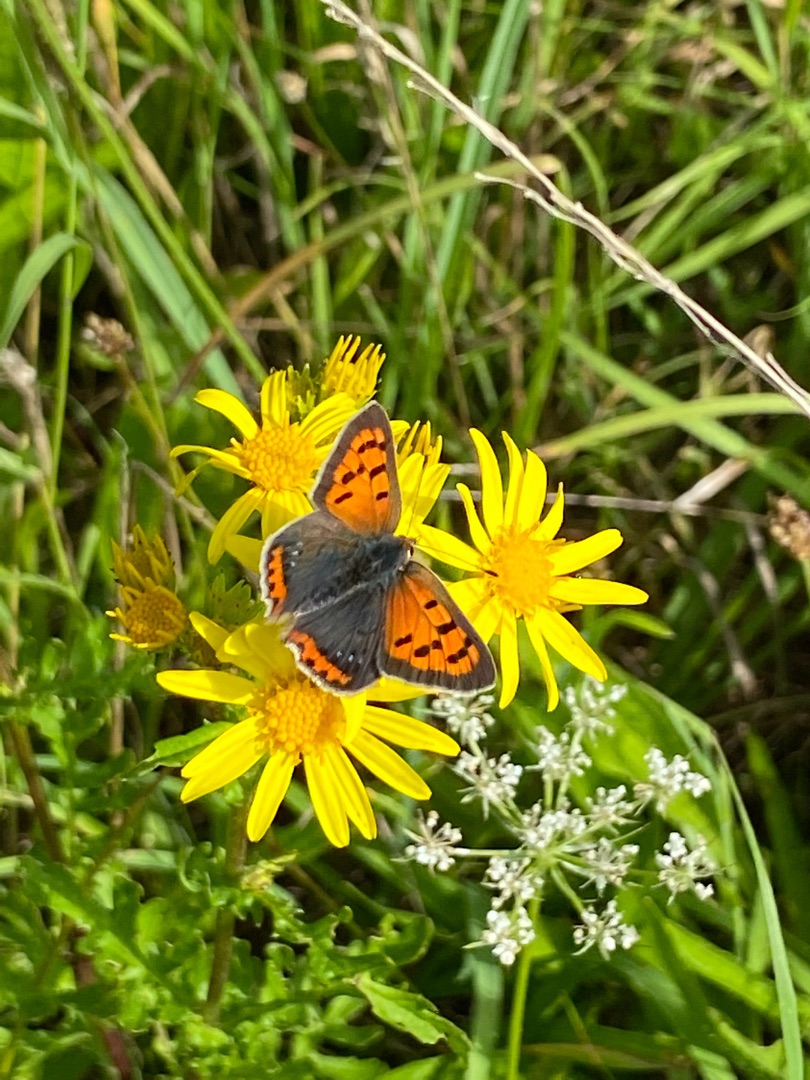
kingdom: Animalia
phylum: Arthropoda
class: Insecta
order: Lepidoptera
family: Lycaenidae
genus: Lycaena
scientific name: Lycaena phlaeas
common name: Lille ildfugl
